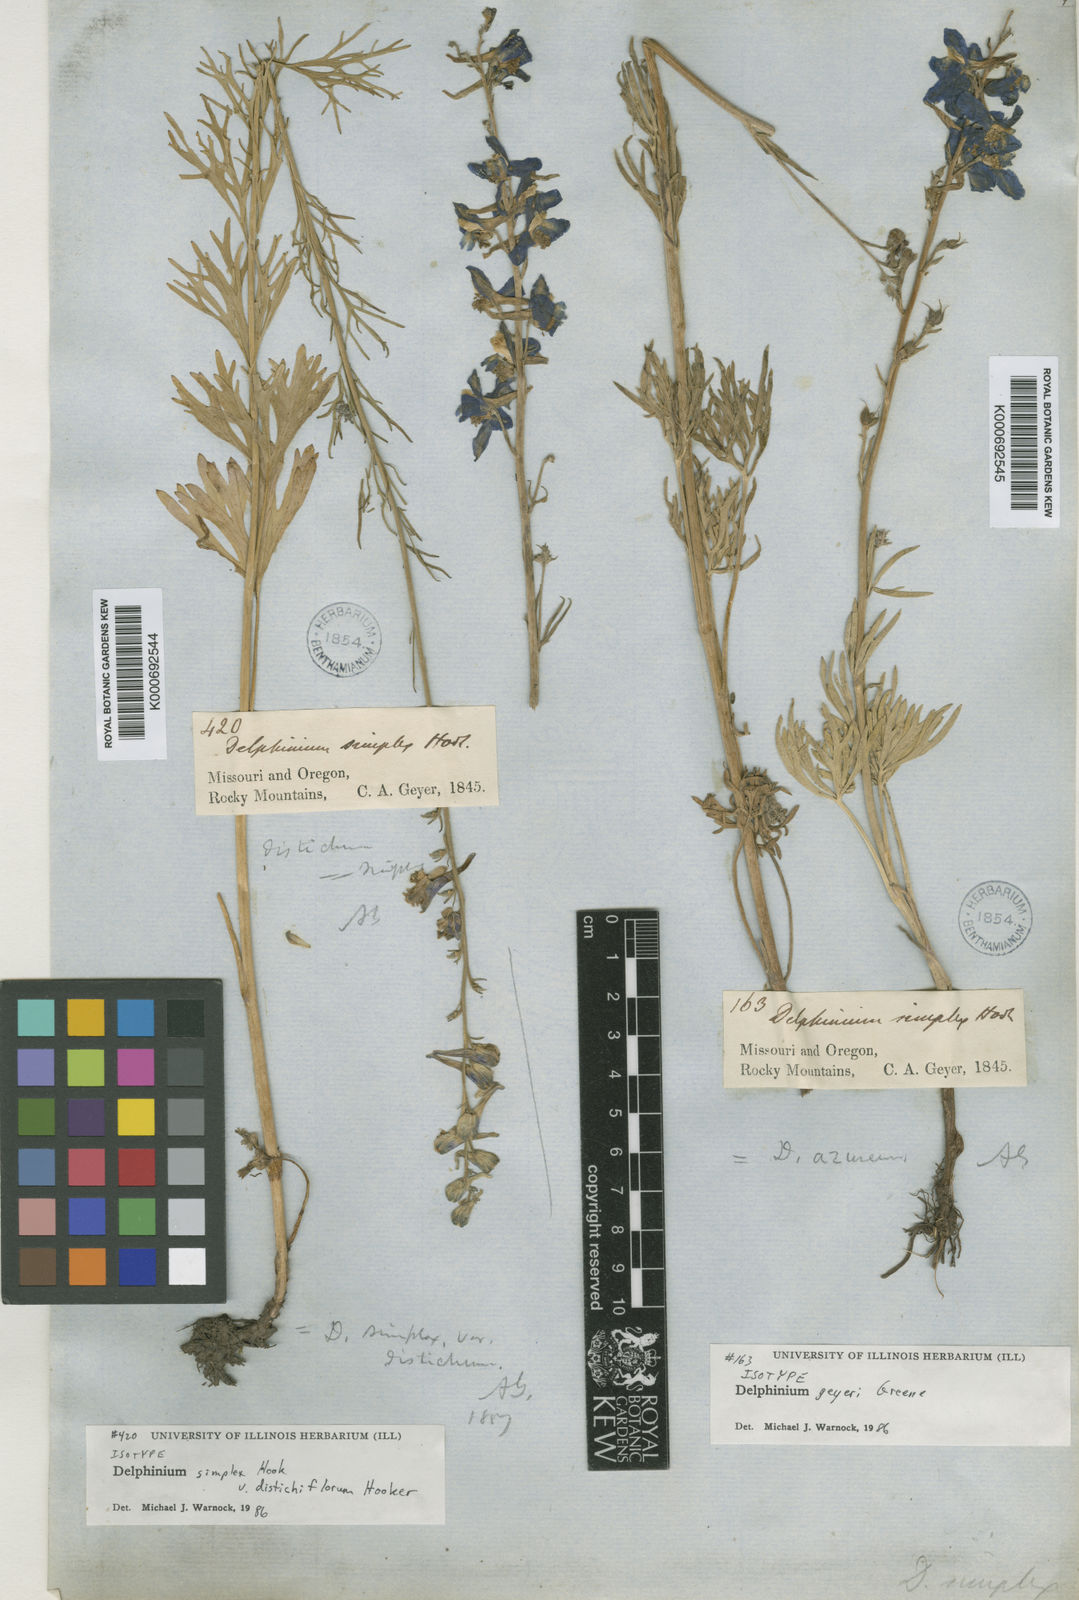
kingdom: Plantae
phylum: Tracheophyta
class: Magnoliopsida
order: Ranunculales
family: Ranunculaceae
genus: Delphinium
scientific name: Delphinium
